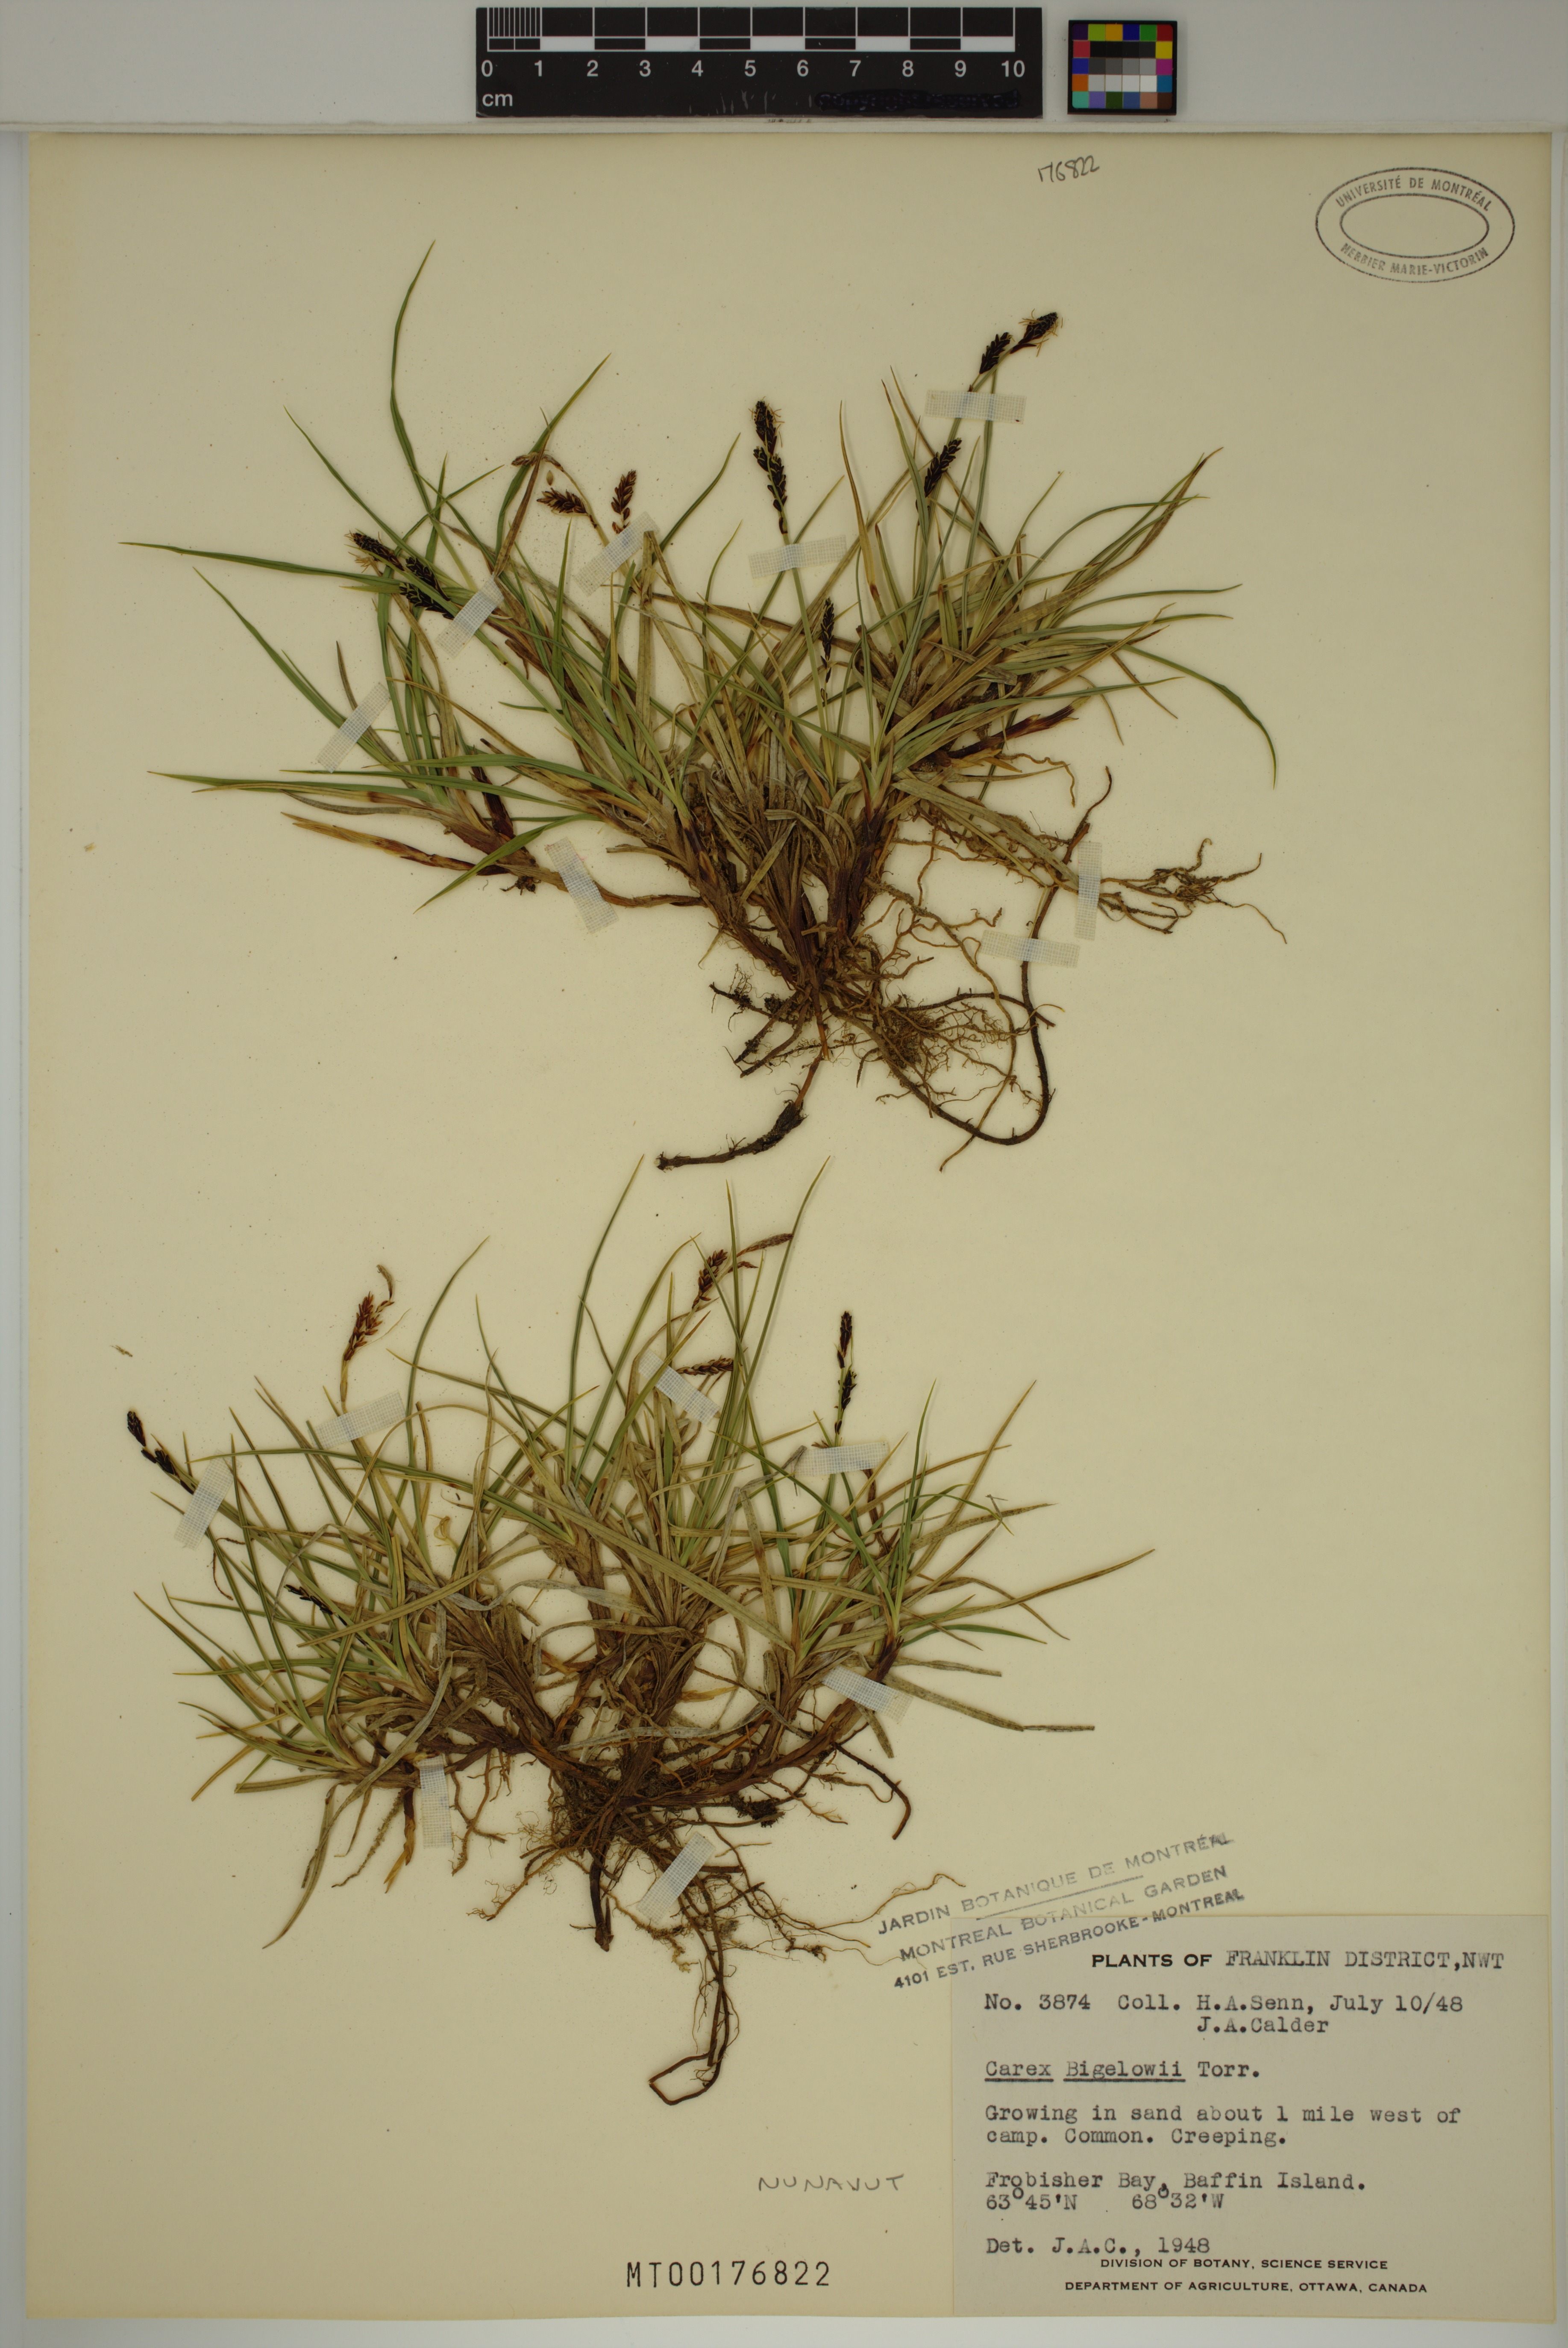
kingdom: Plantae
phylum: Tracheophyta
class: Liliopsida
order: Poales
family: Cyperaceae
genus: Carex
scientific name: Carex bigelowii
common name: Stiff sedge
